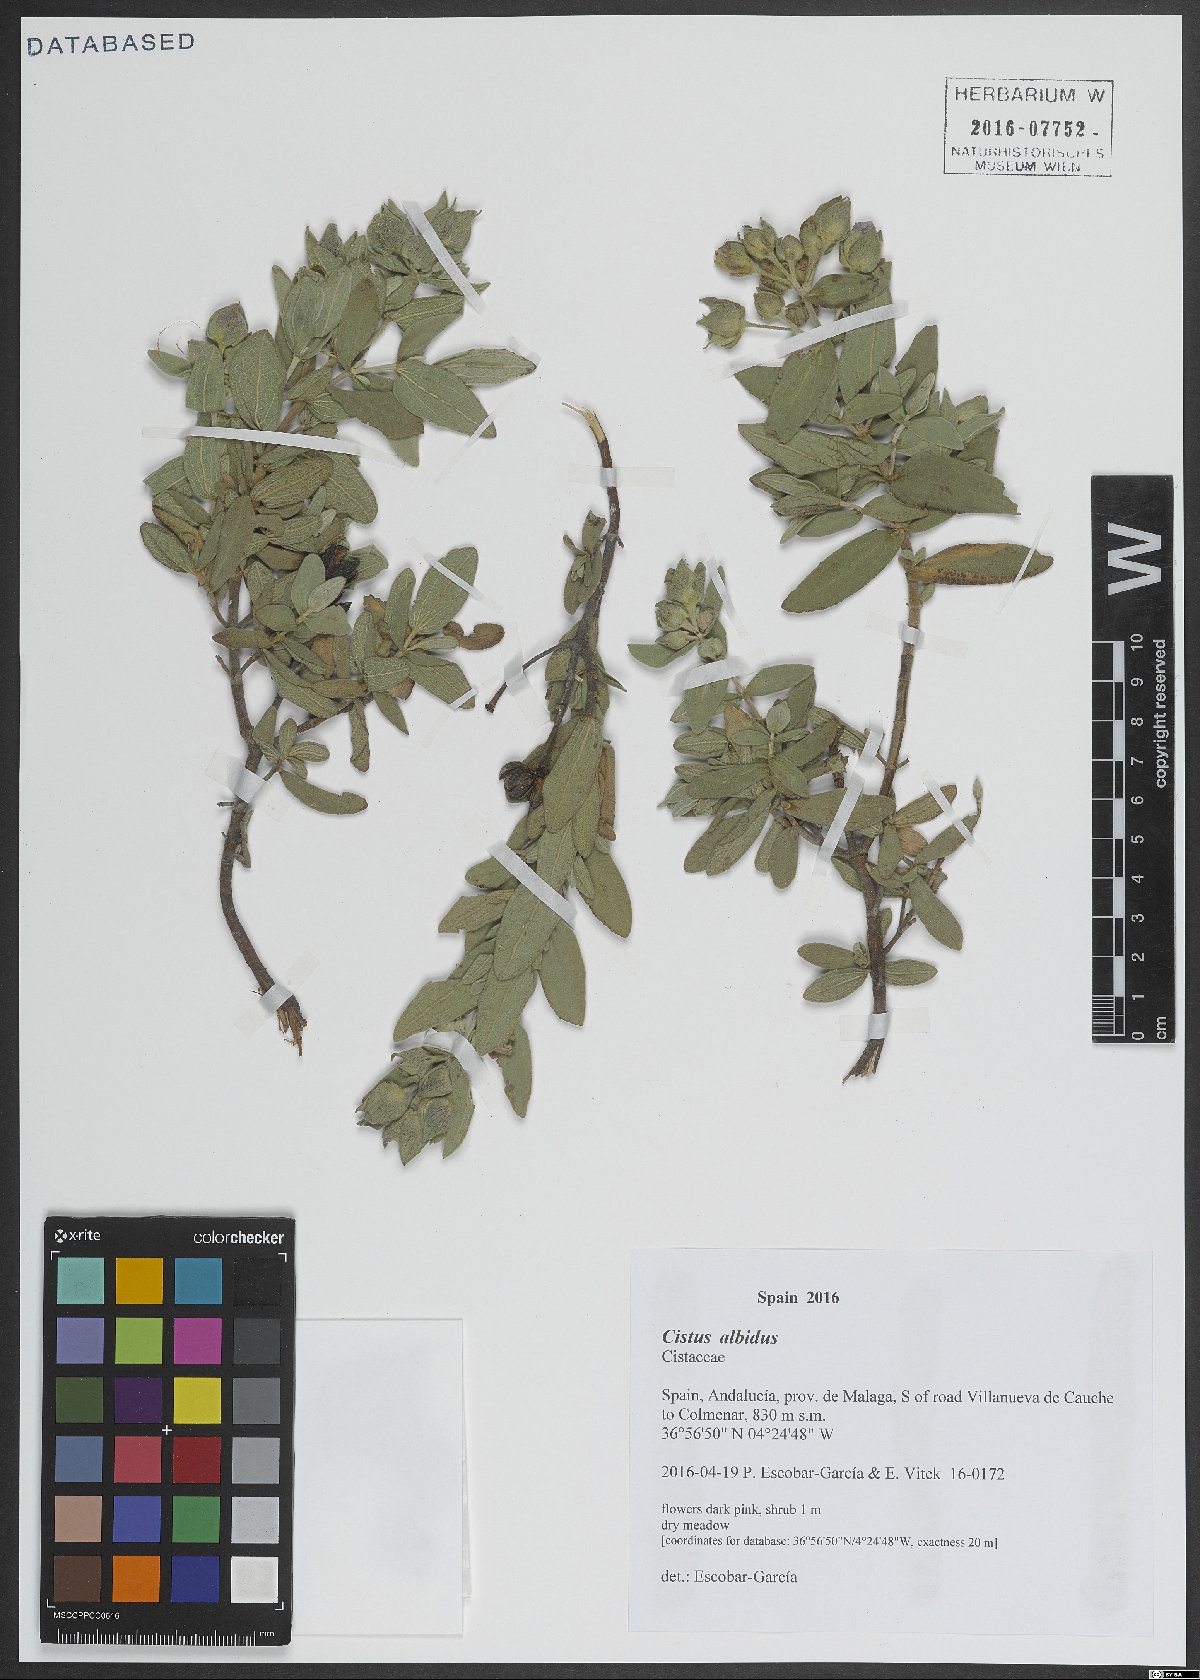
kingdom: Plantae
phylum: Tracheophyta
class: Magnoliopsida
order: Malvales
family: Cistaceae
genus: Cistus
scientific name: Cistus albidus
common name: White-leaf rock-rose
